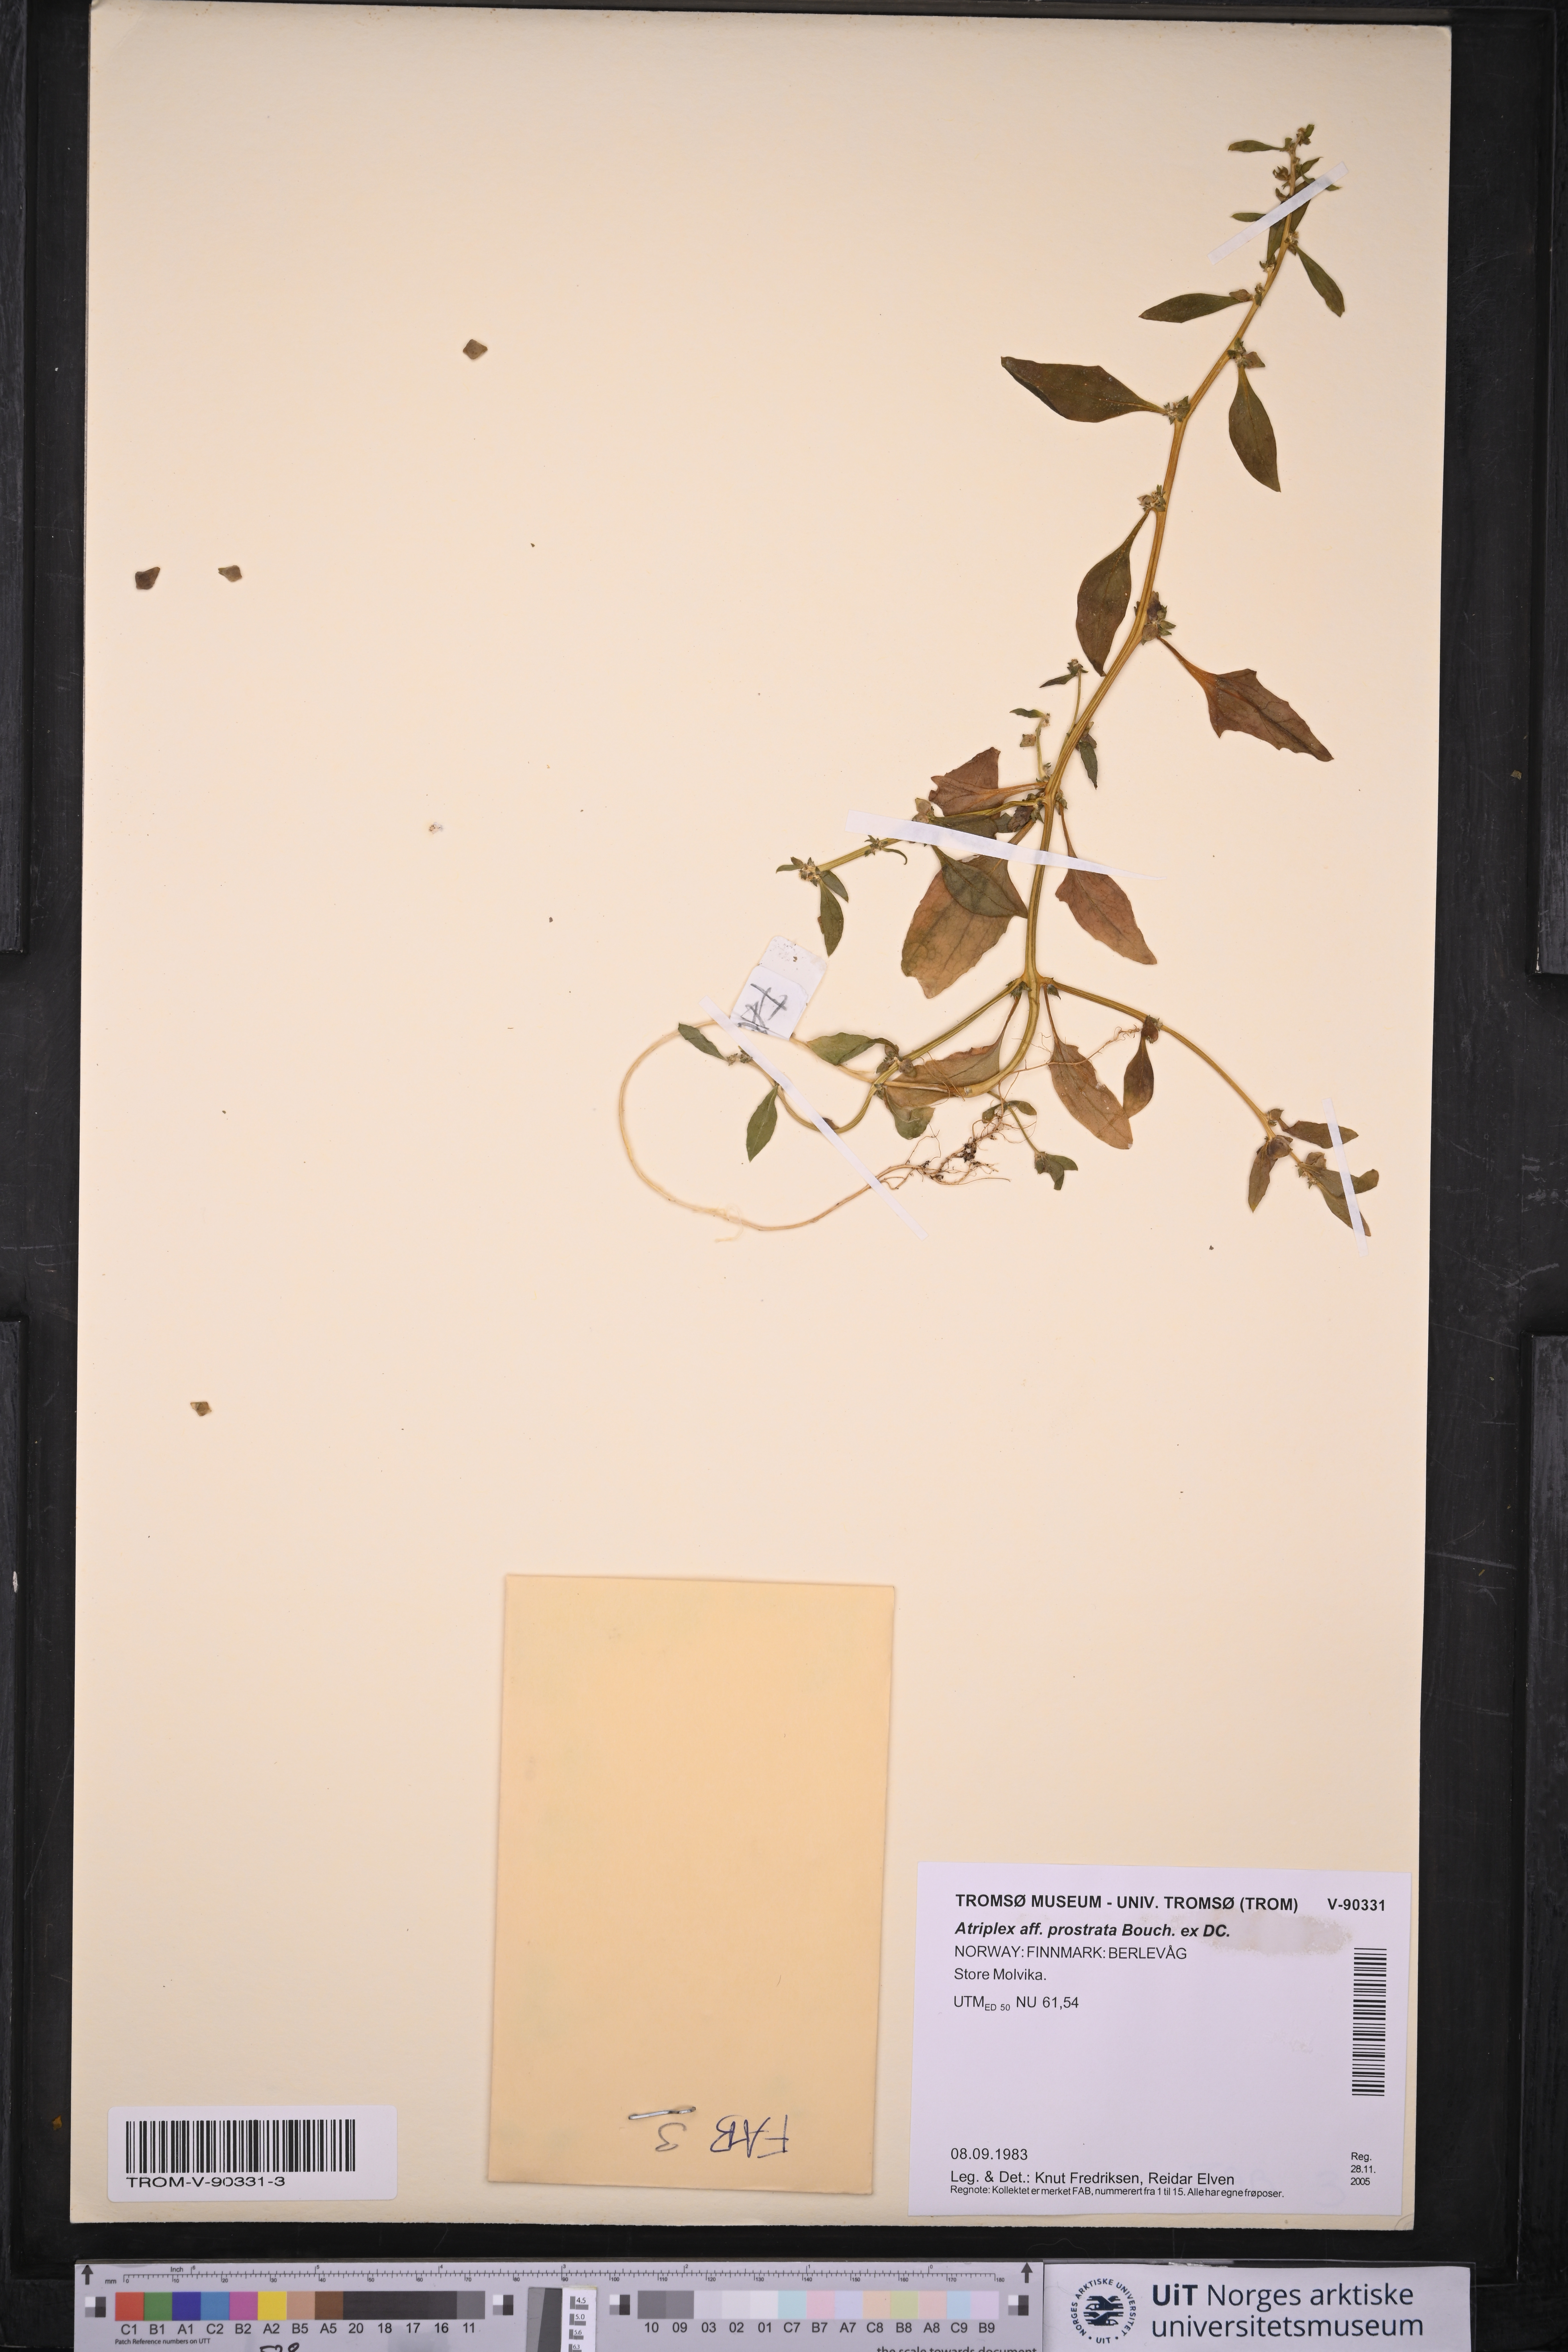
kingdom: Plantae
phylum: Tracheophyta
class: Magnoliopsida
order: Caryophyllales
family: Amaranthaceae
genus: Atriplex
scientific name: Atriplex prostrata
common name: Spear-leaved orache
